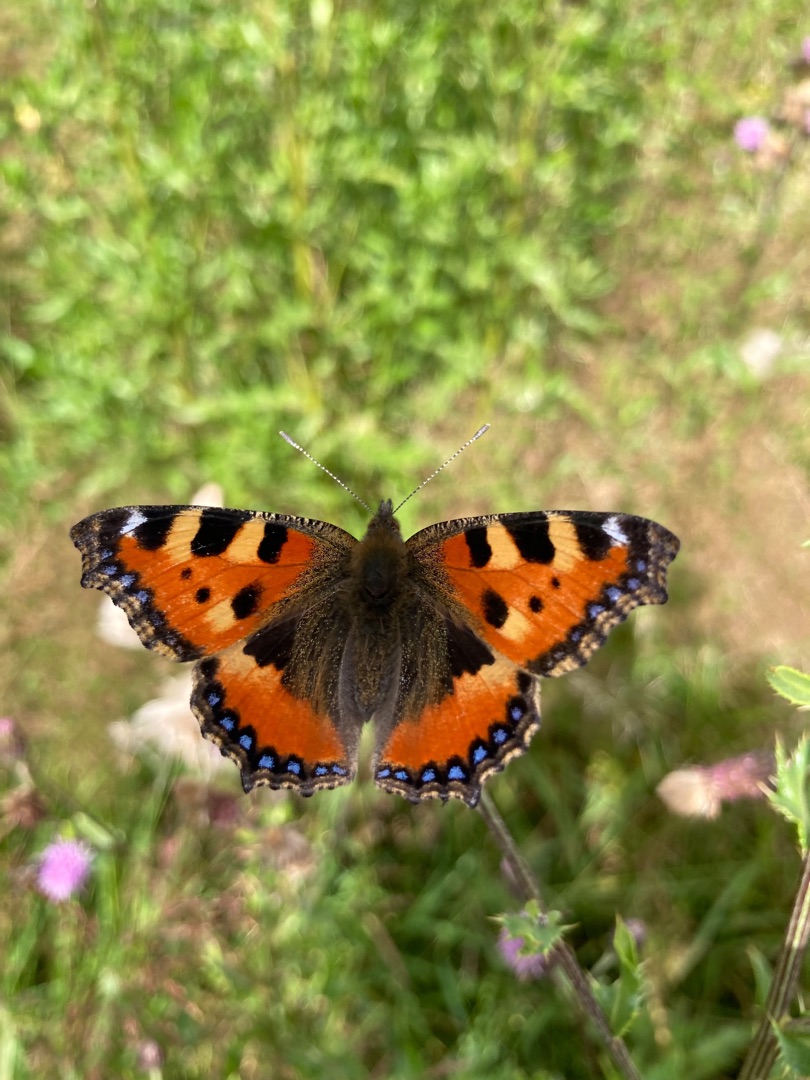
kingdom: Animalia
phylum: Arthropoda
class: Insecta
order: Lepidoptera
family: Nymphalidae
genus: Aglais
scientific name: Aglais urticae
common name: Nældens takvinge
